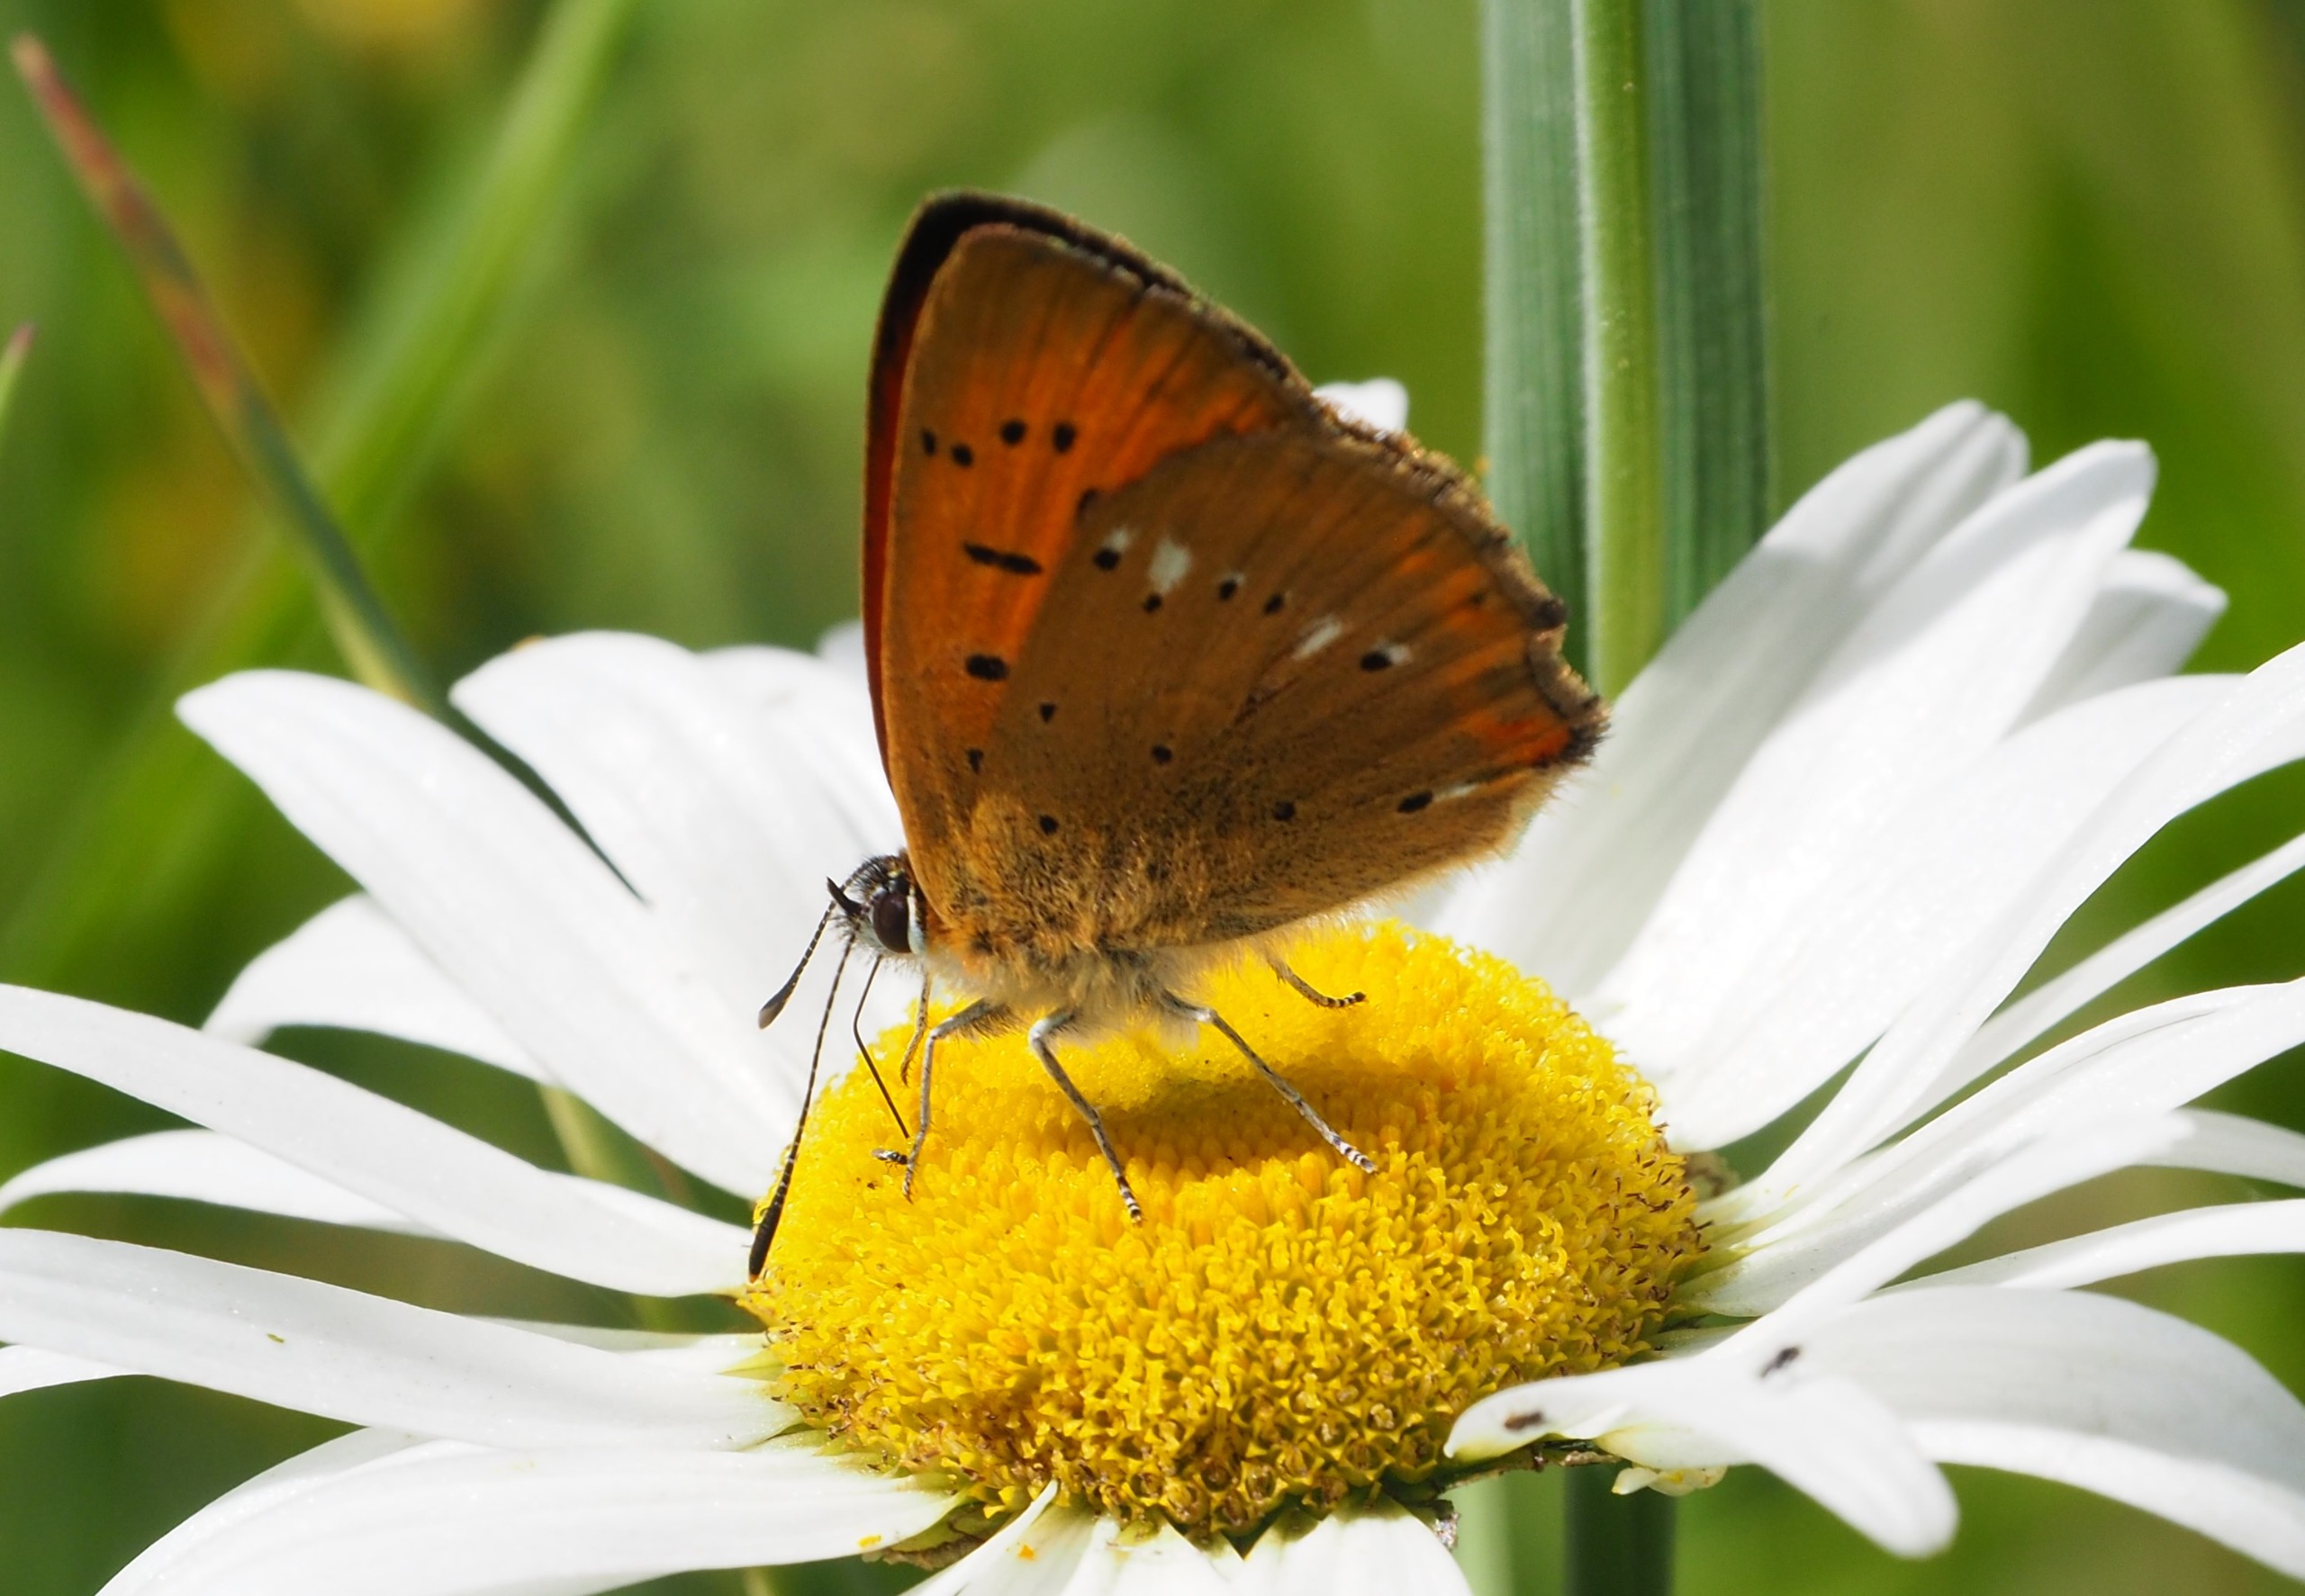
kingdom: Animalia
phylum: Arthropoda
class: Insecta
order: Lepidoptera
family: Lycaenidae
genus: Lycaena
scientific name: Lycaena virgaureae
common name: Dukatsommerfugl
